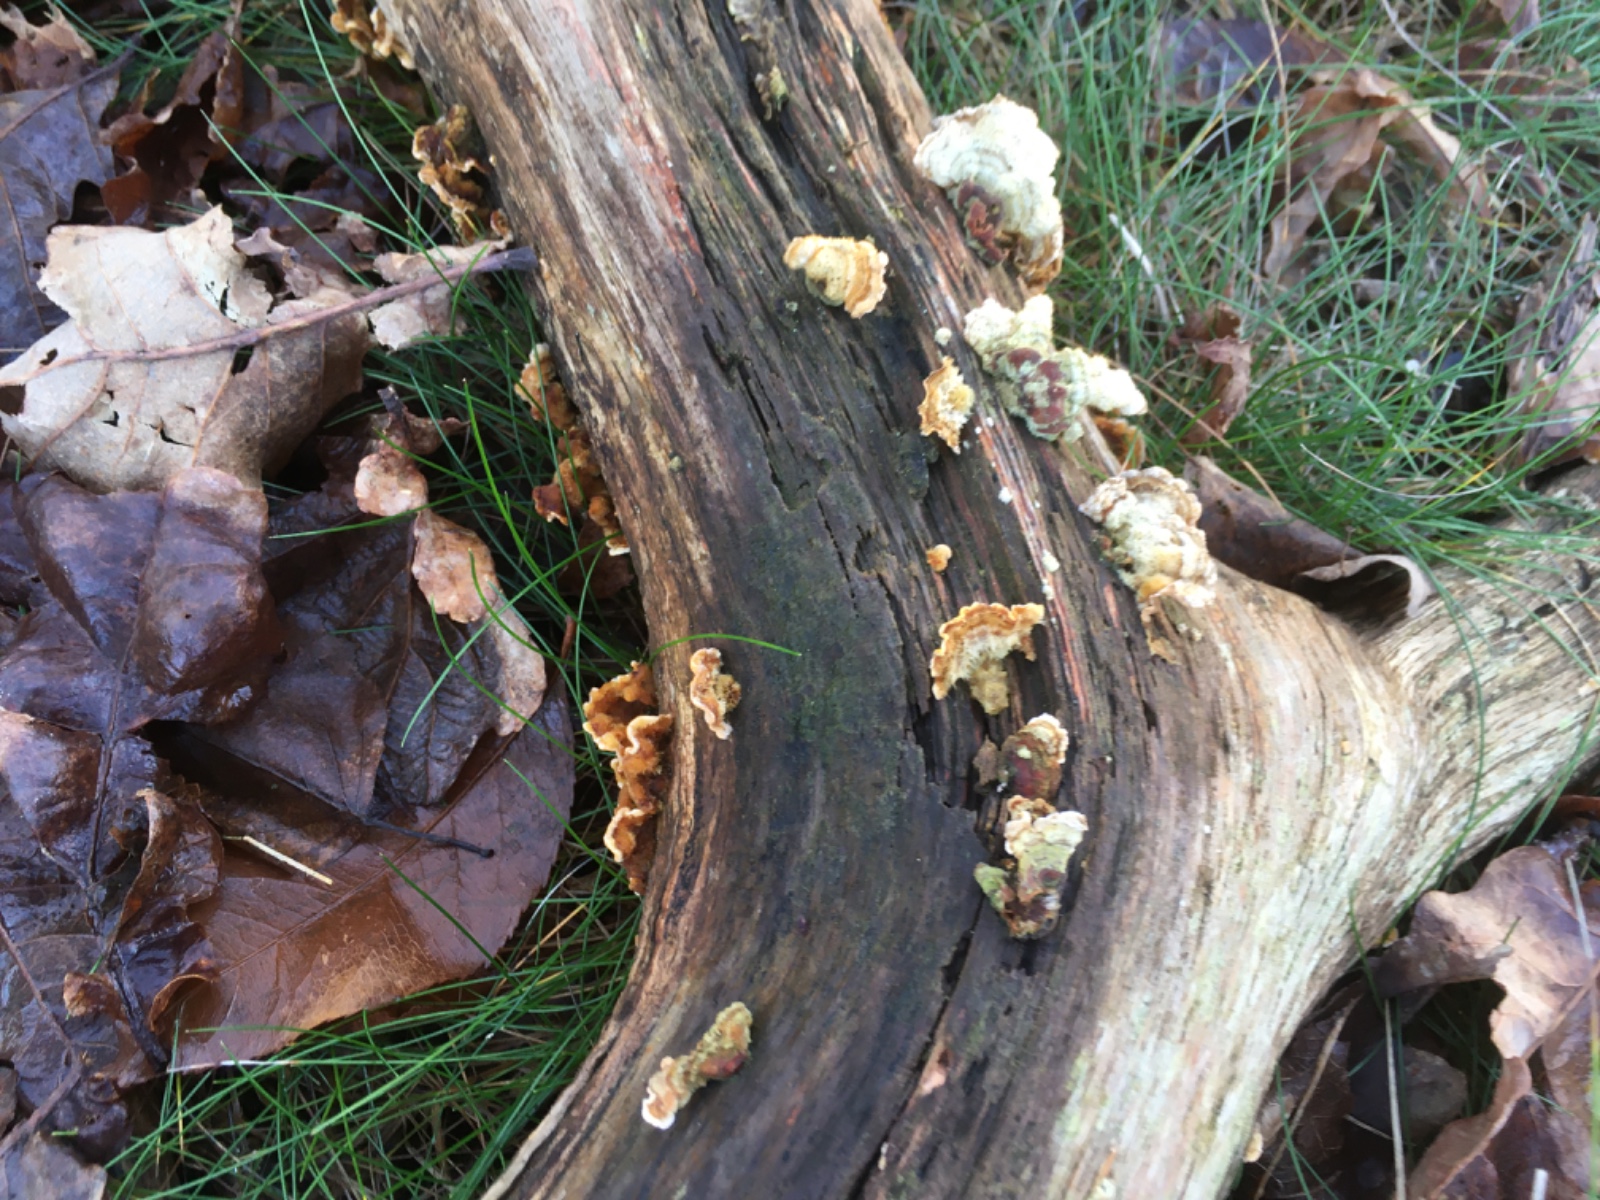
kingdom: Fungi
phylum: Basidiomycota
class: Agaricomycetes
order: Russulales
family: Stereaceae
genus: Stereum
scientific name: Stereum hirsutum
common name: håret lædersvamp
